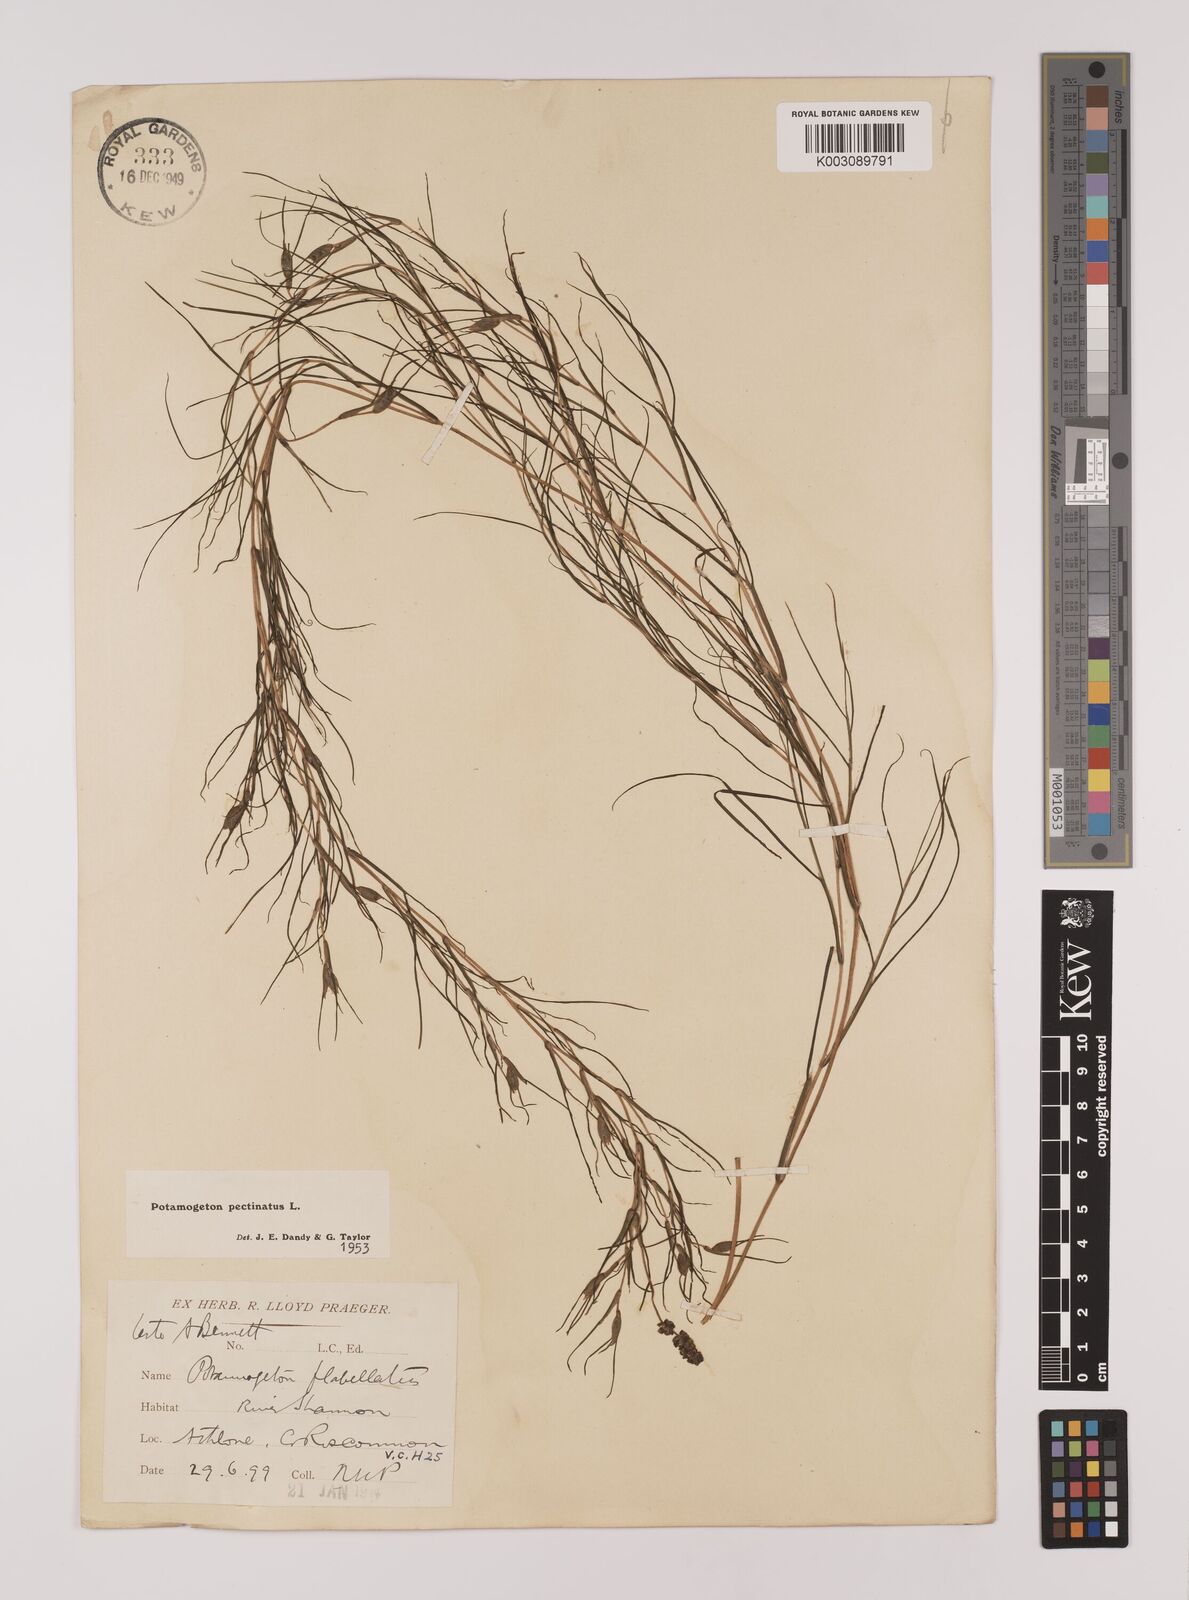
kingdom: Plantae
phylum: Tracheophyta
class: Liliopsida
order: Alismatales
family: Potamogetonaceae
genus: Stuckenia
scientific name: Stuckenia pectinata
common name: Sago pondweed
